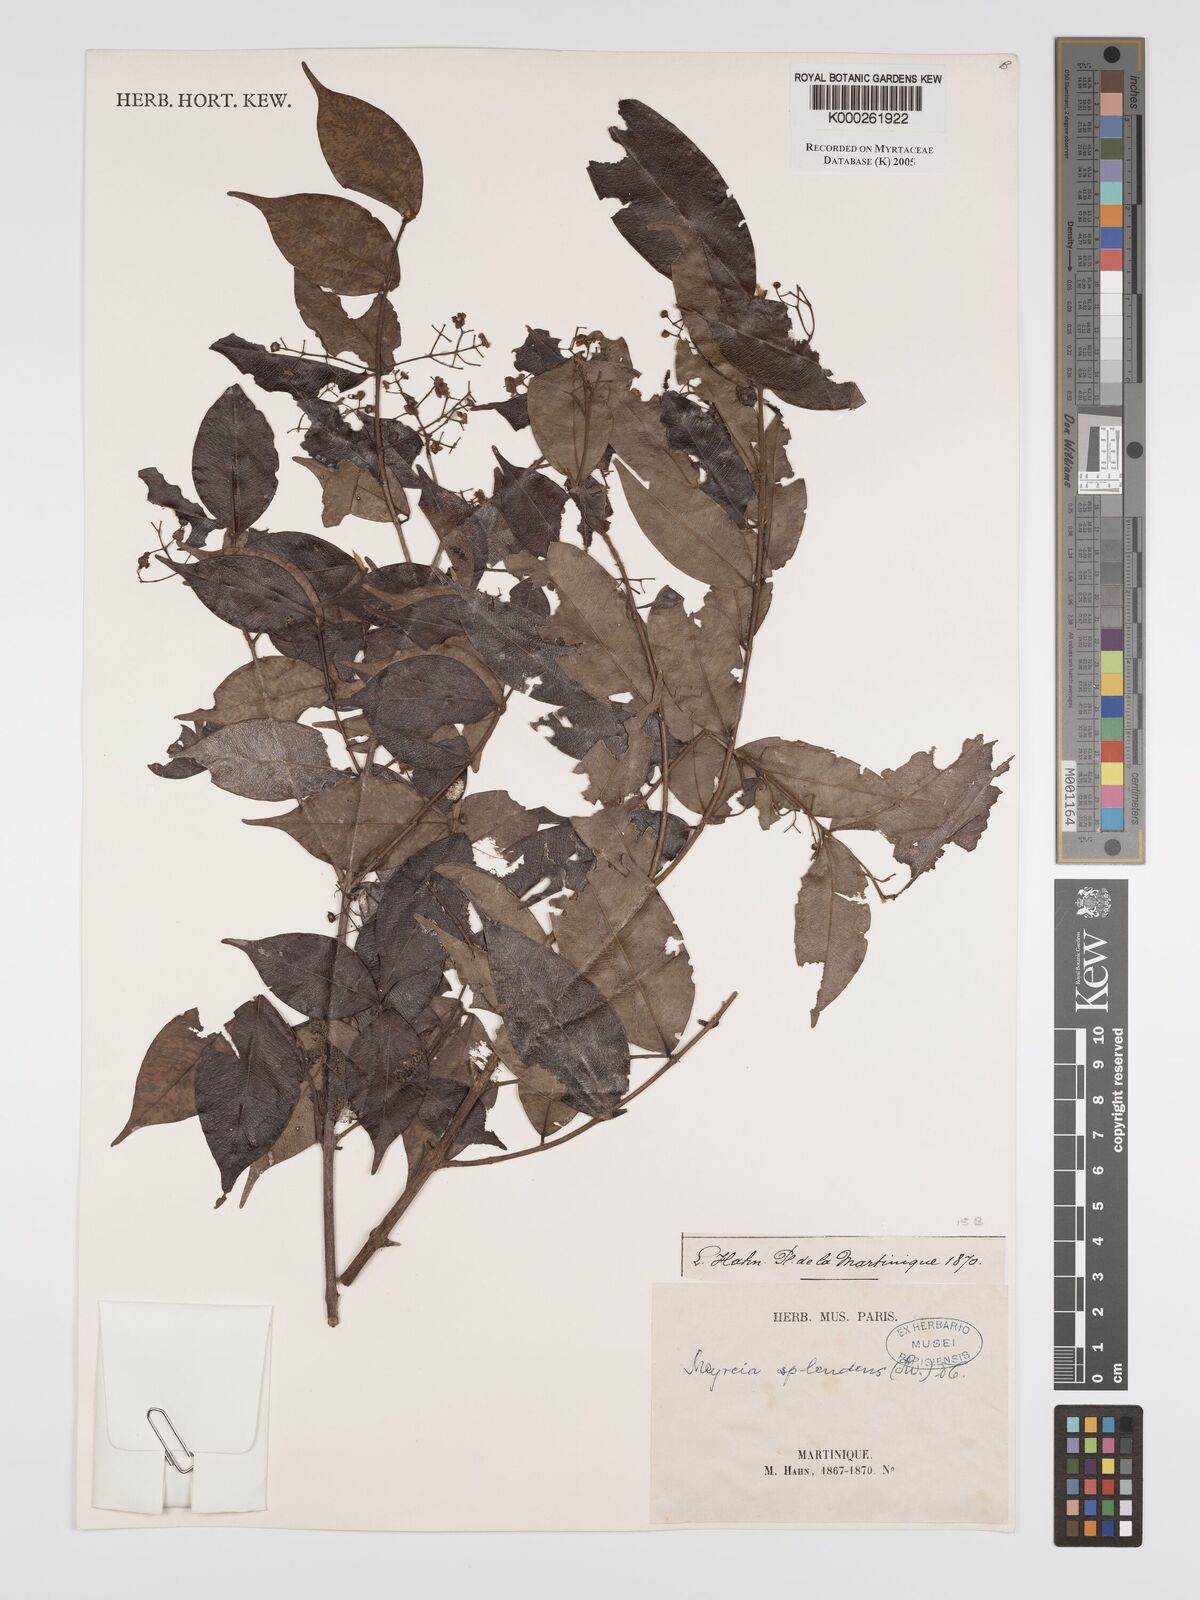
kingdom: Plantae
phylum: Tracheophyta
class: Magnoliopsida
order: Myrtales
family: Myrtaceae
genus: Myrcia
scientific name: Myrcia splendens
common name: Surinam cherry
